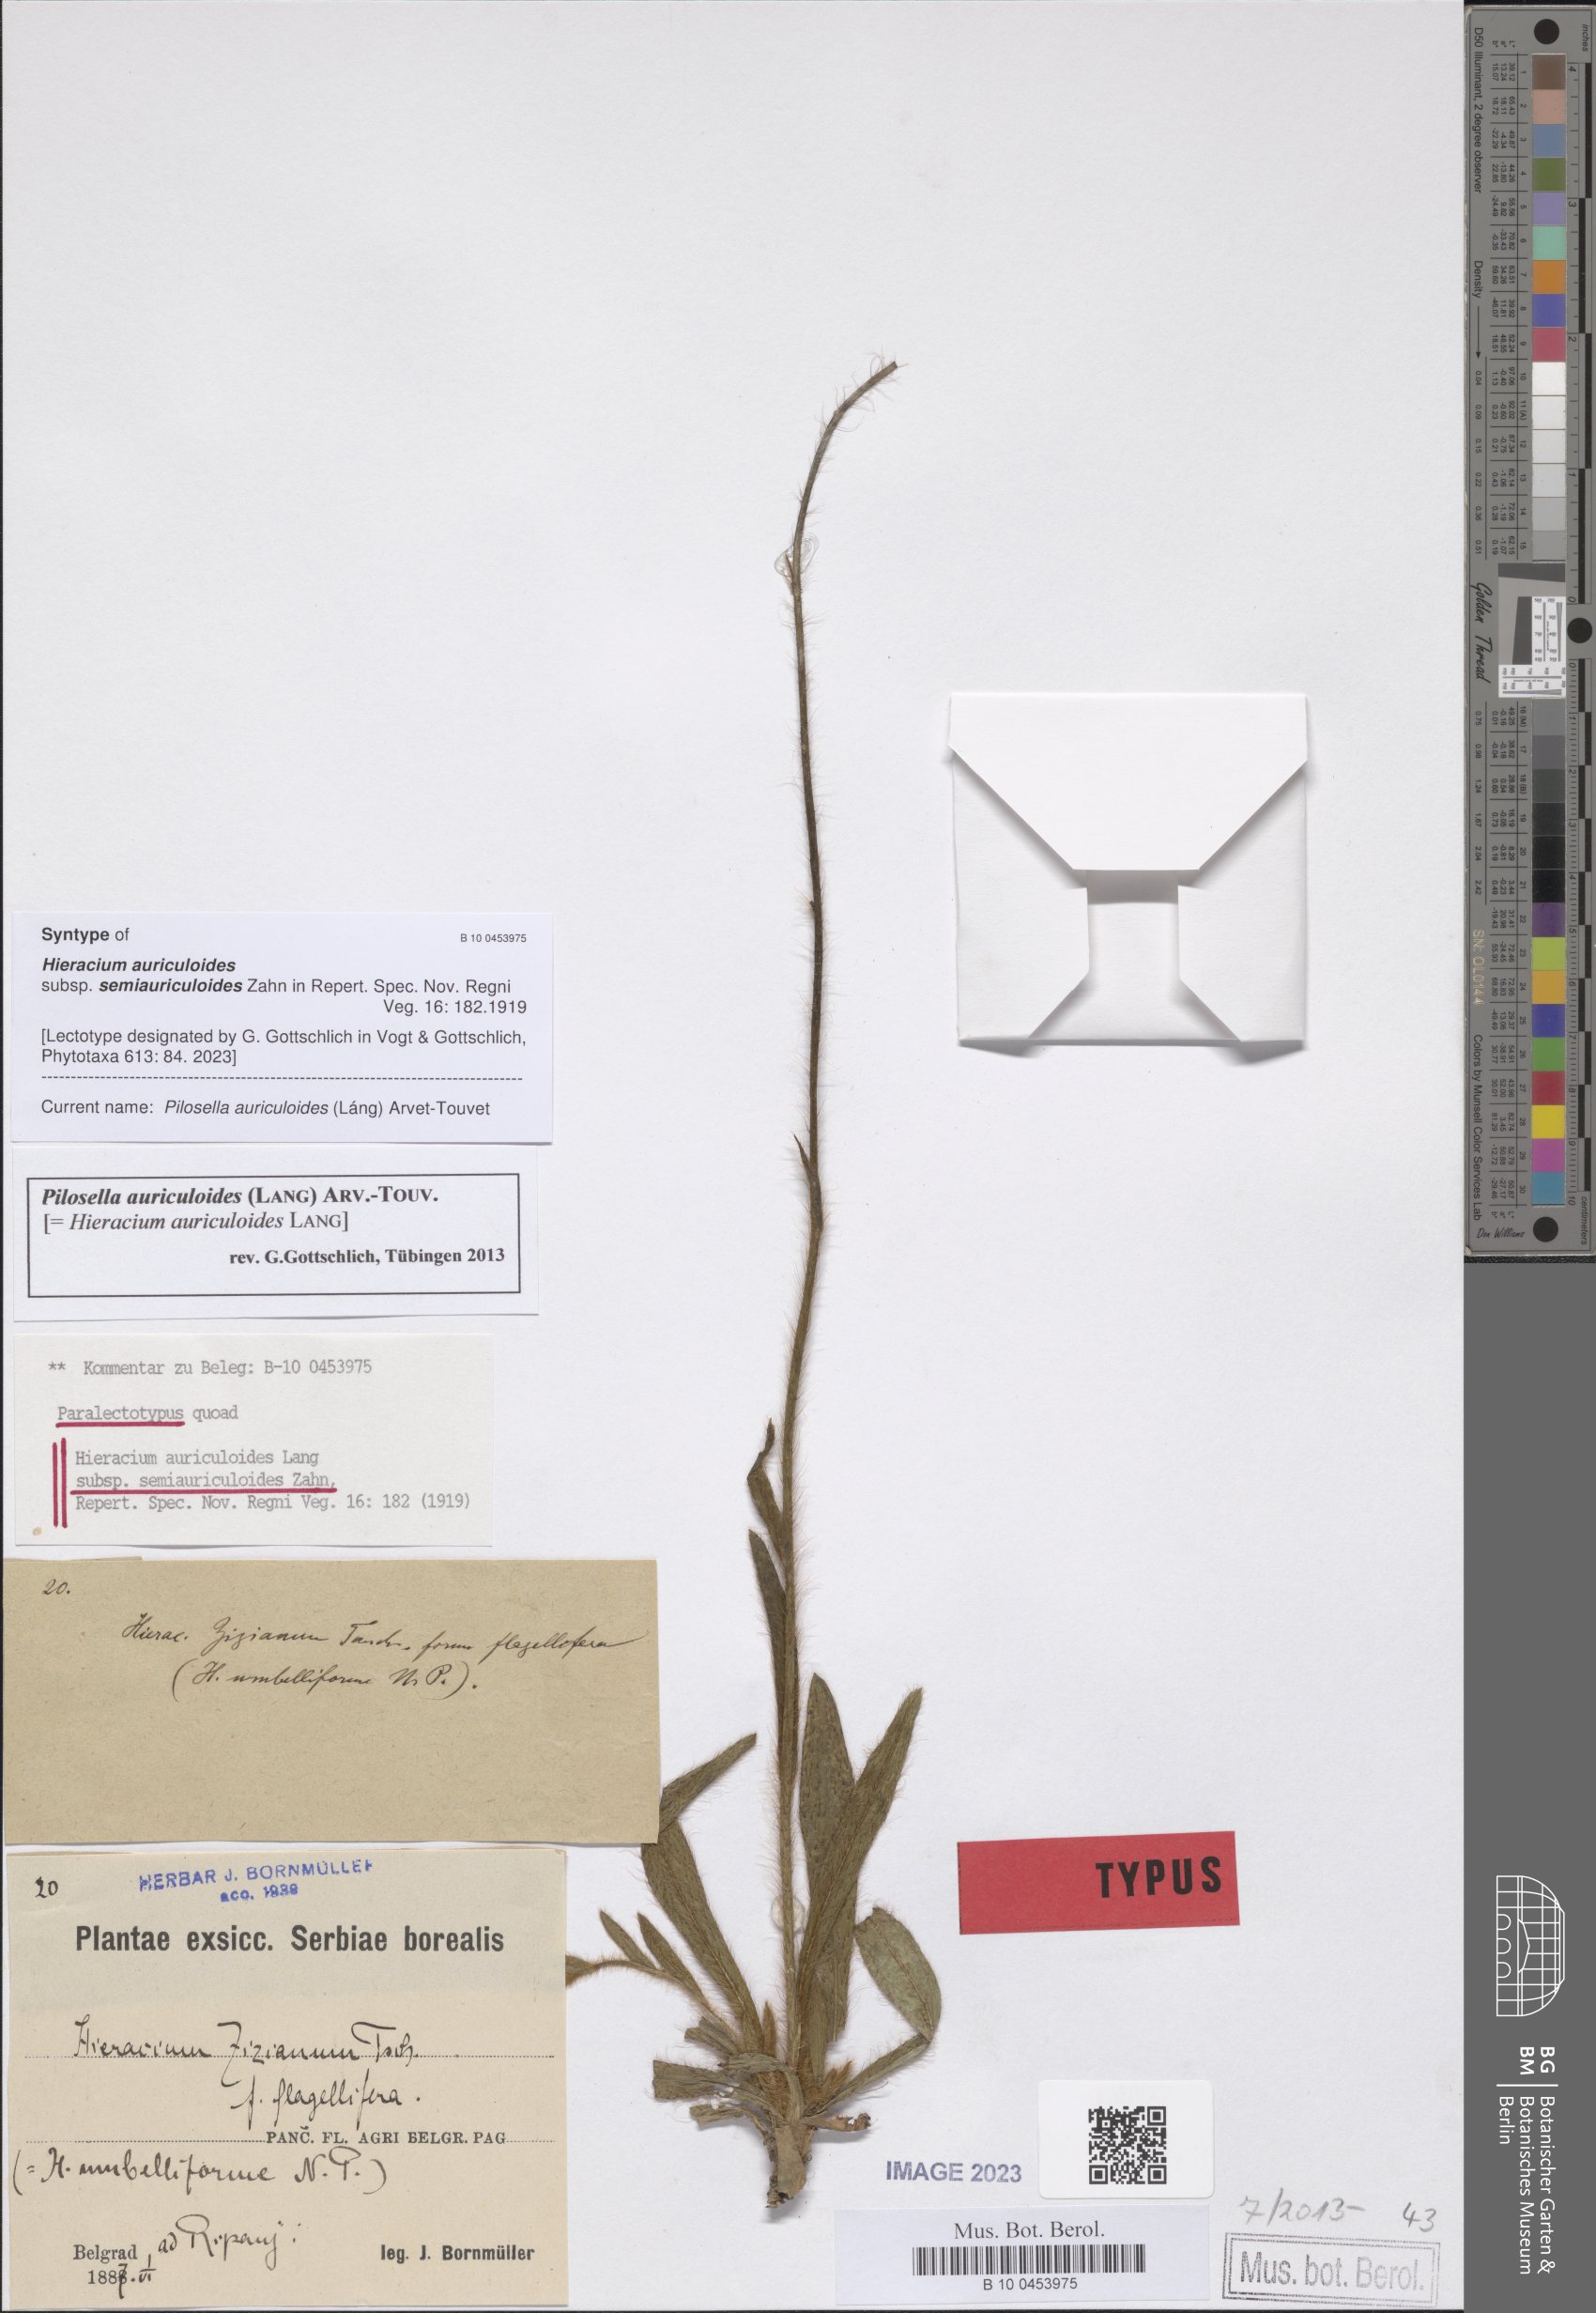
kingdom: Plantae
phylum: Tracheophyta
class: Magnoliopsida
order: Asterales
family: Asteraceae
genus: Pilosella
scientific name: Pilosella auriculoides
